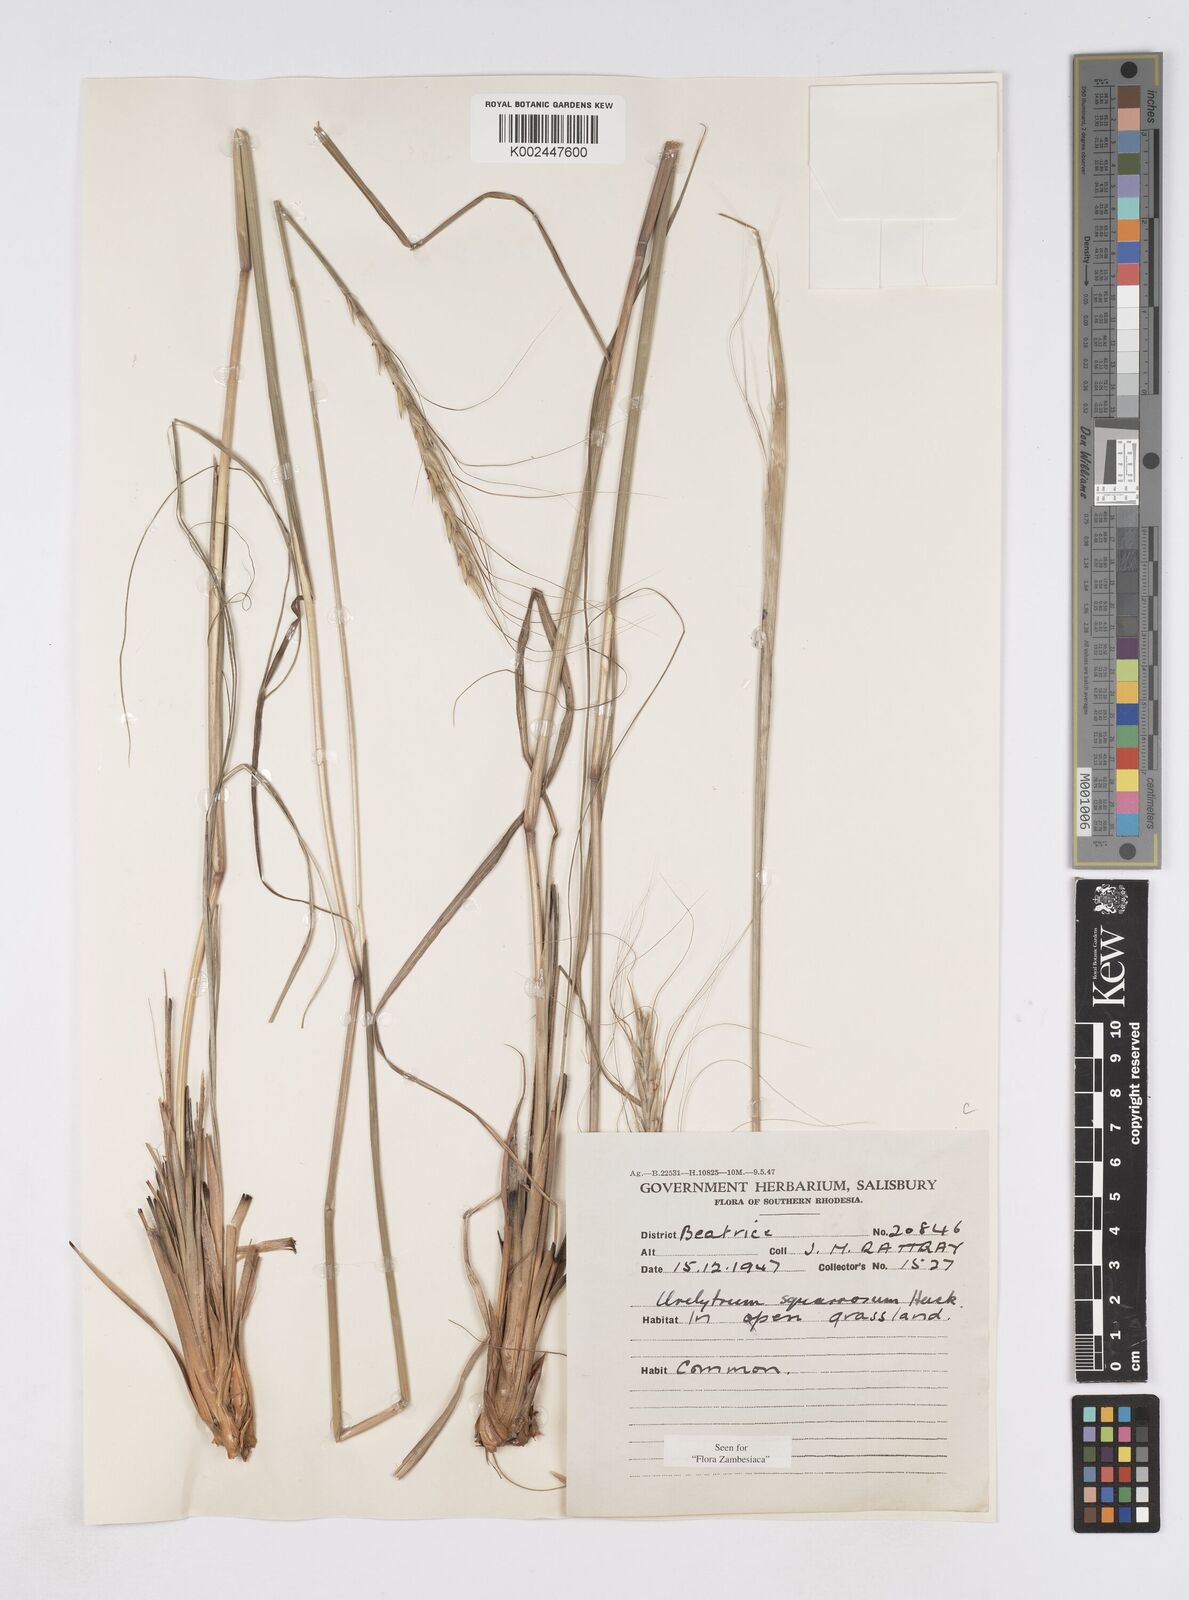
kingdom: Plantae
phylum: Tracheophyta
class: Liliopsida
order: Poales
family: Poaceae
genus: Urelytrum
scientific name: Urelytrum agropyroides
